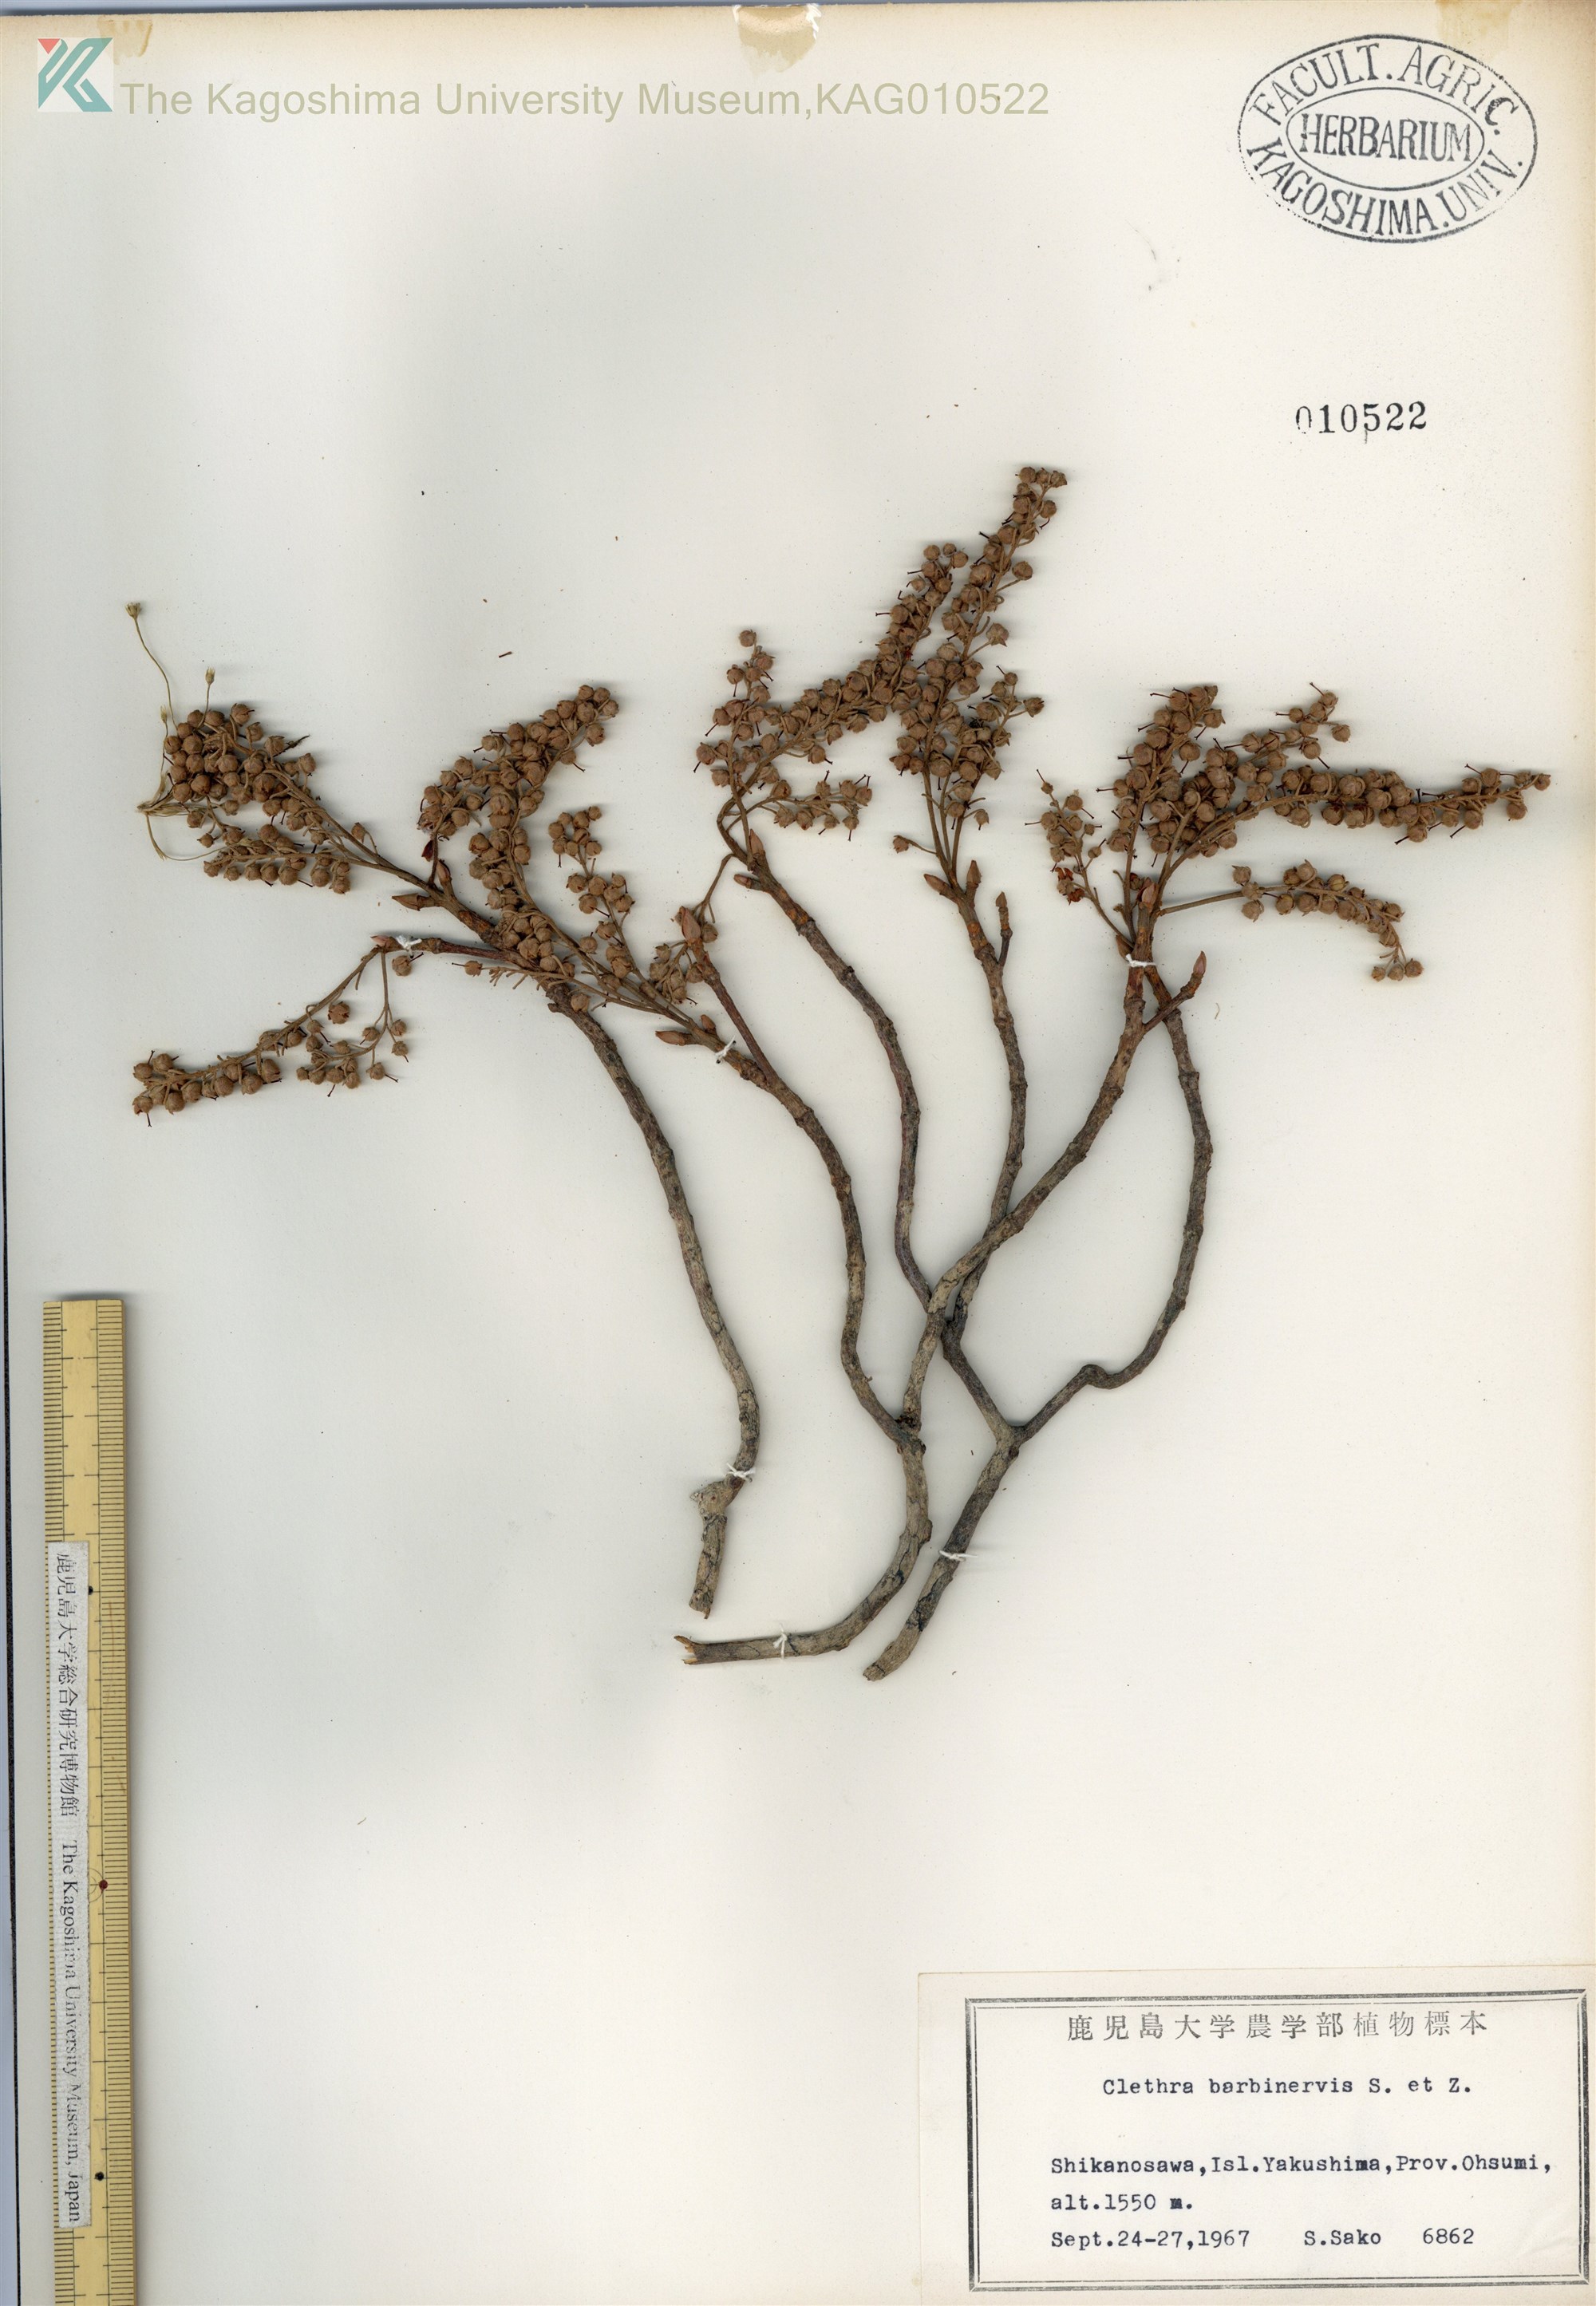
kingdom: Plantae
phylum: Tracheophyta
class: Magnoliopsida
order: Ericales
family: Clethraceae
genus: Clethra
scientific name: Clethra barbinervis
